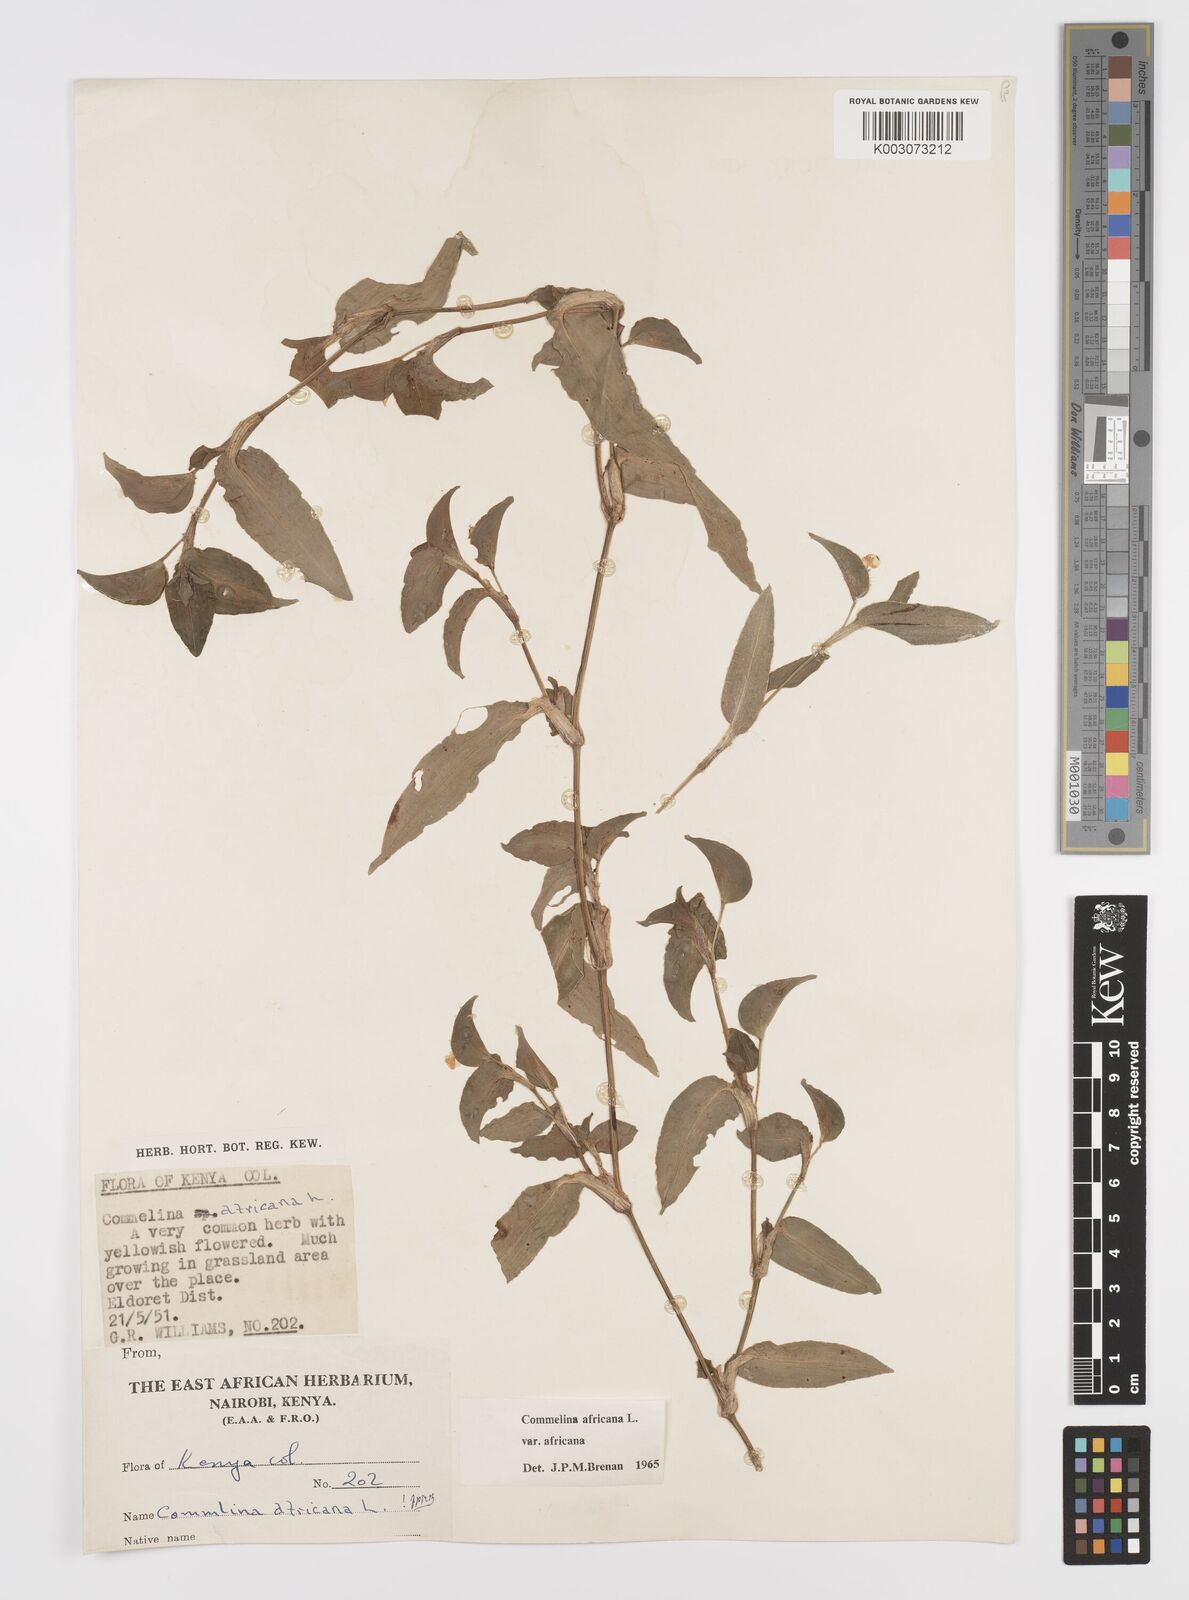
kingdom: Plantae
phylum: Tracheophyta
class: Liliopsida
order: Commelinales
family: Commelinaceae
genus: Commelina
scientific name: Commelina africana
